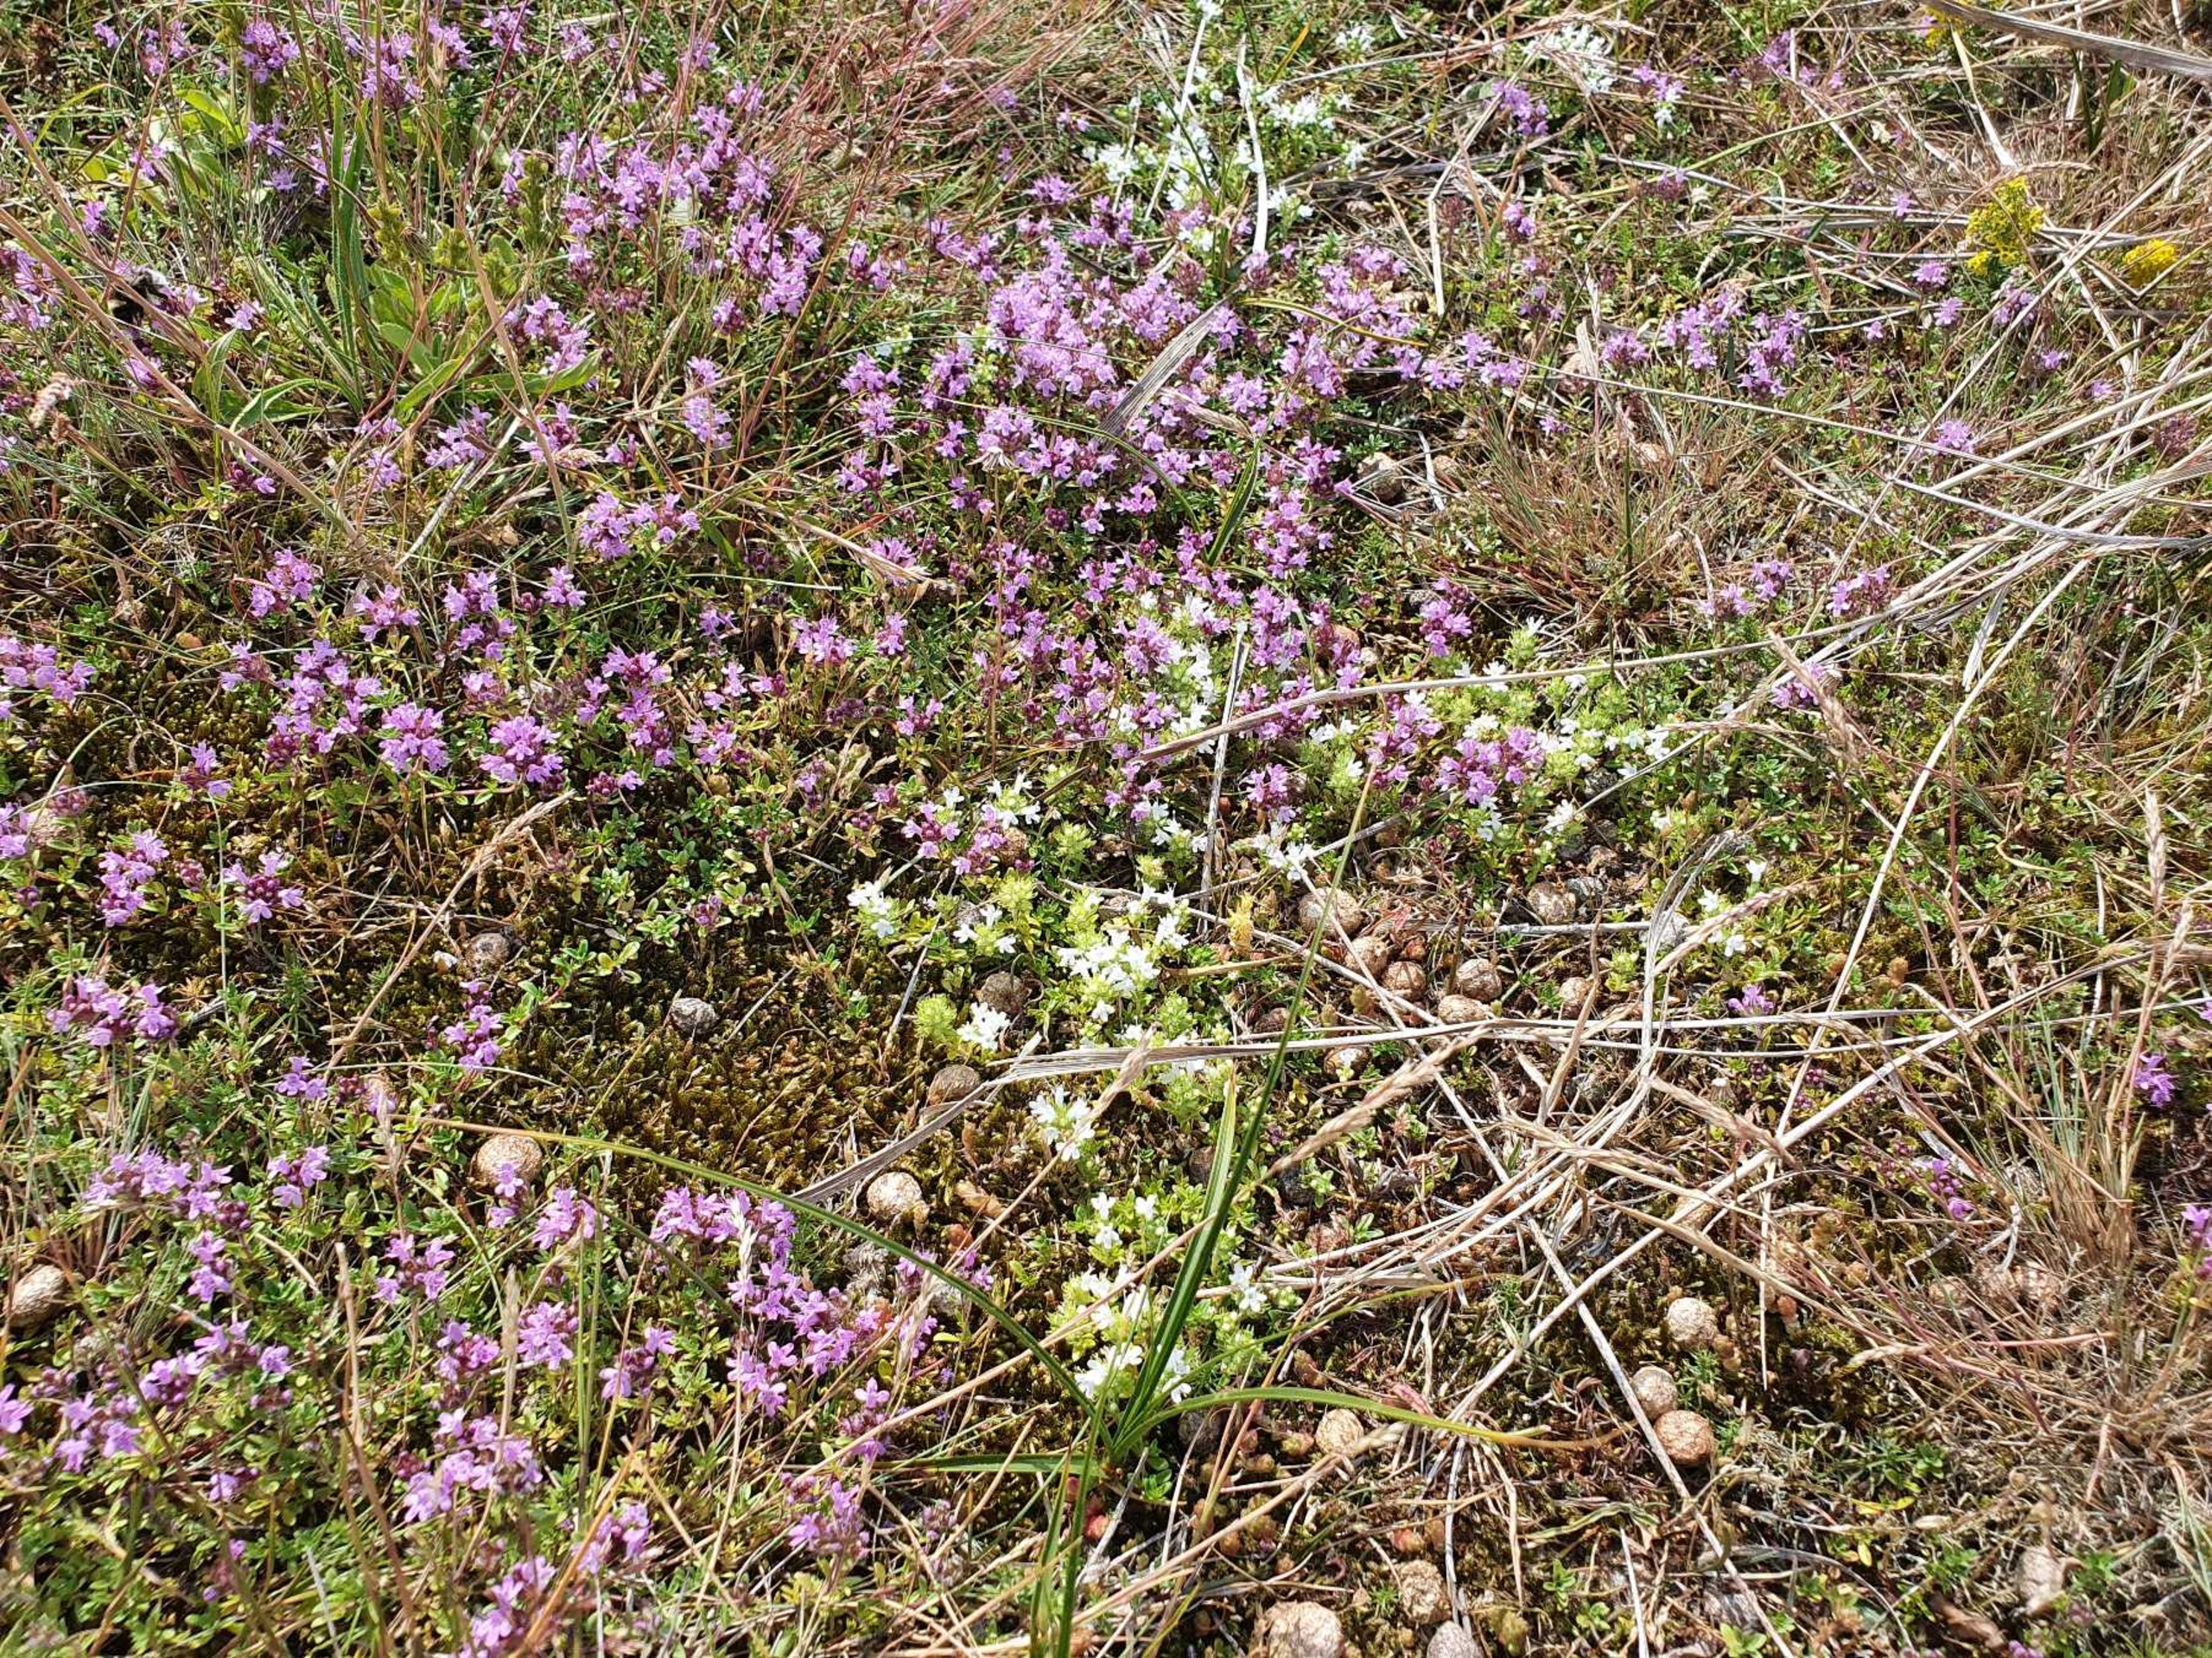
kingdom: Plantae
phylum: Tracheophyta
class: Magnoliopsida
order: Lamiales
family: Lamiaceae
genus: Thymus
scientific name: Thymus serpyllum
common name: Smalbladet timian
